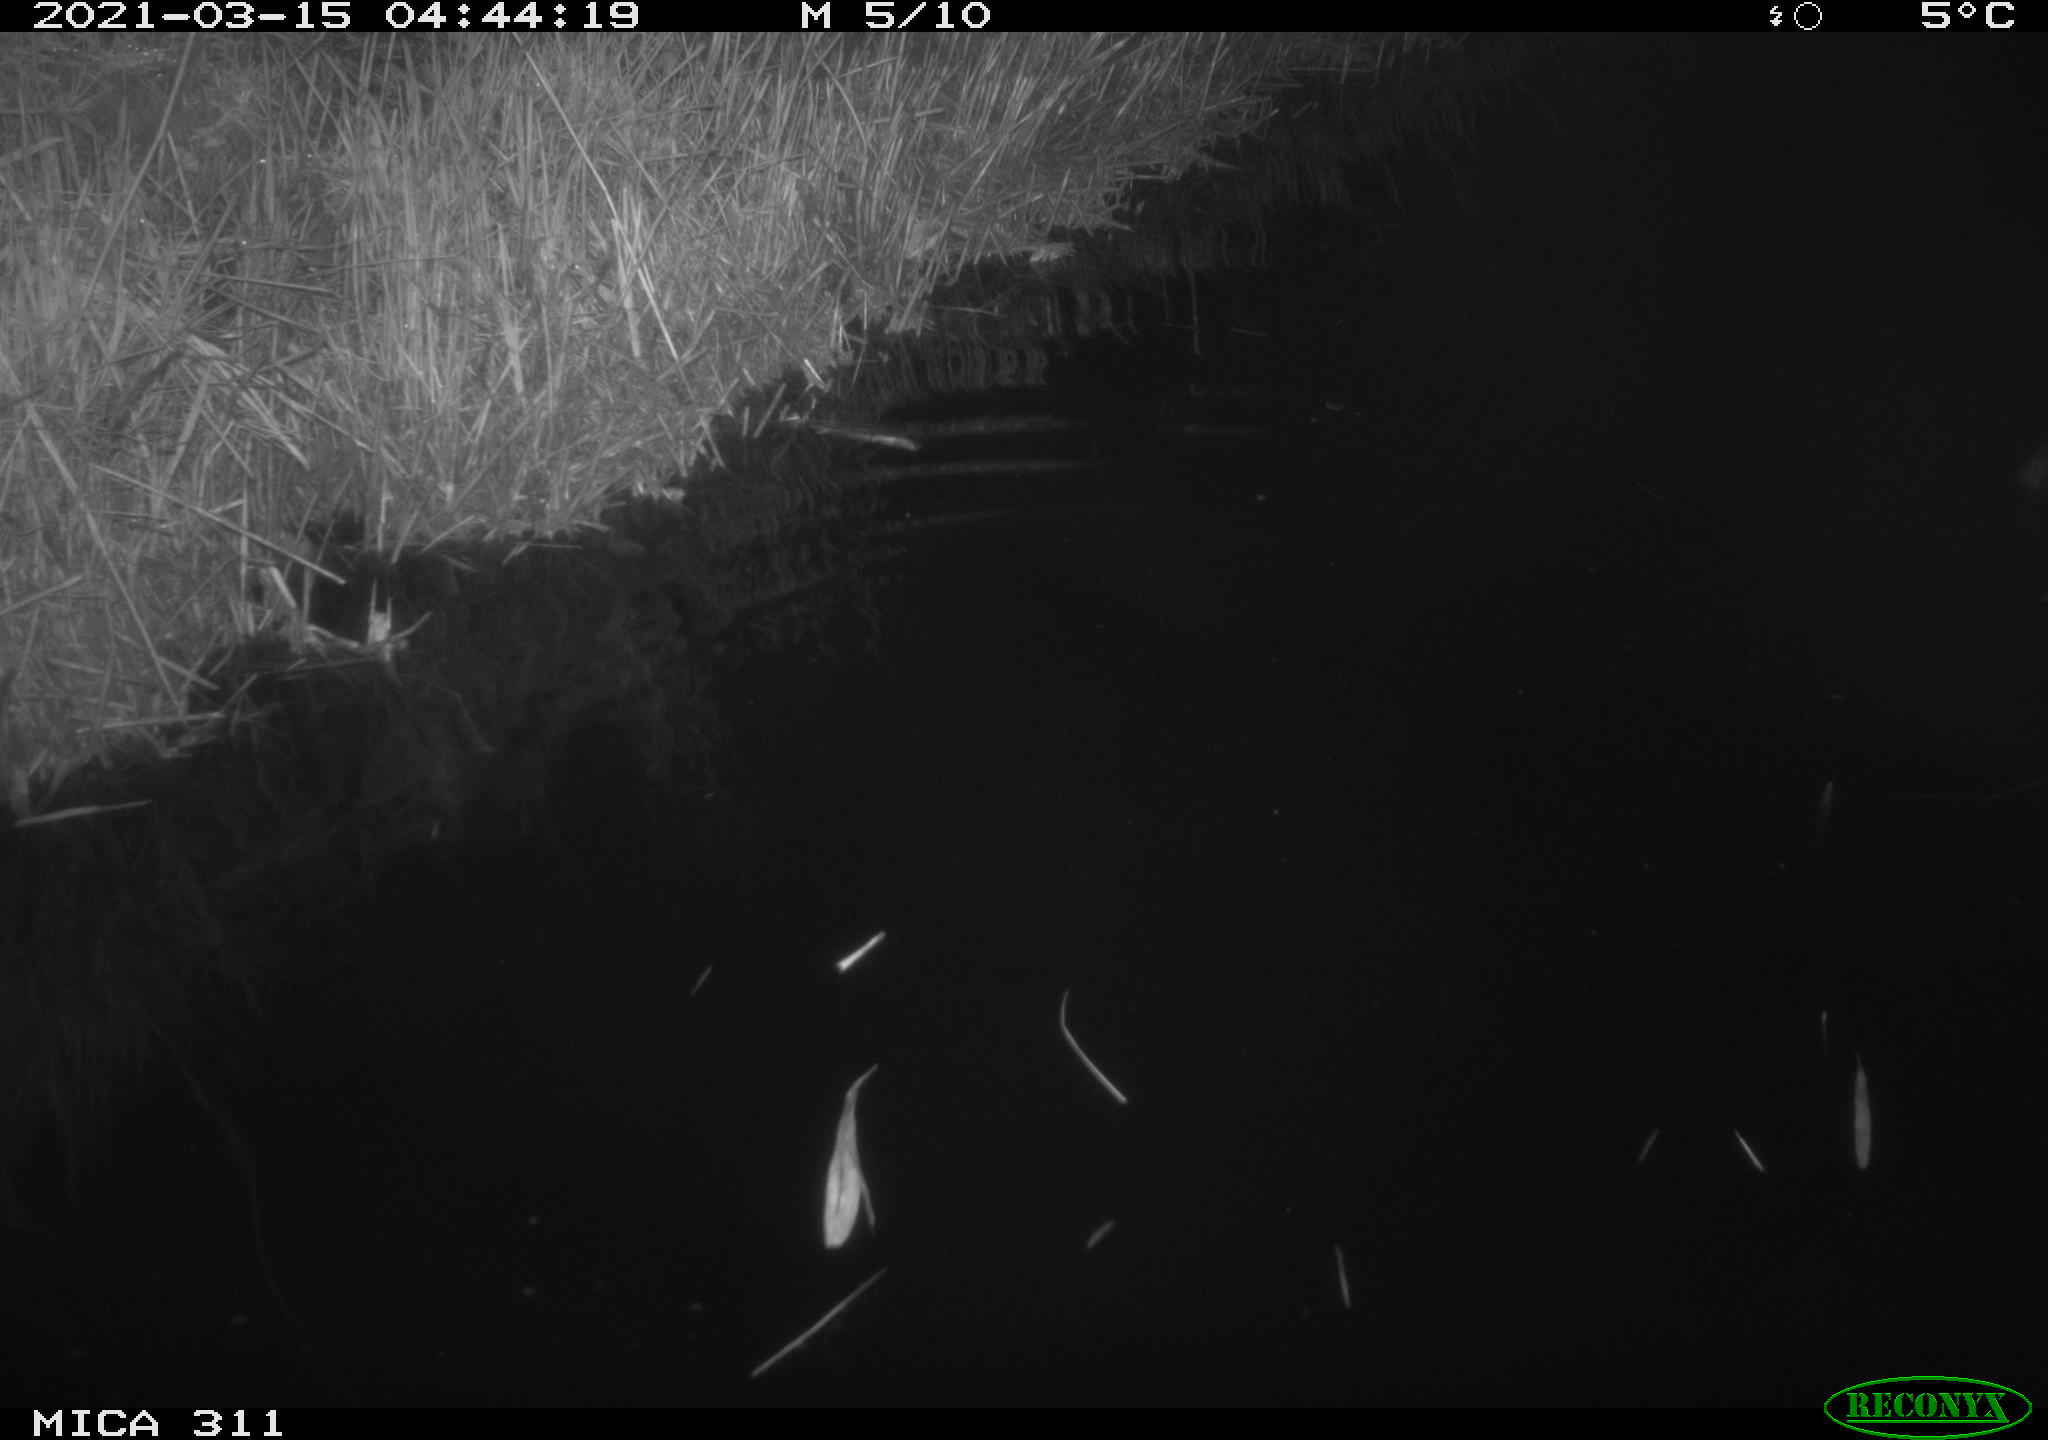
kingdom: Animalia
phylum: Chordata
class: Mammalia
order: Rodentia
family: Cricetidae
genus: Ondatra
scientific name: Ondatra zibethicus
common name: Muskrat
